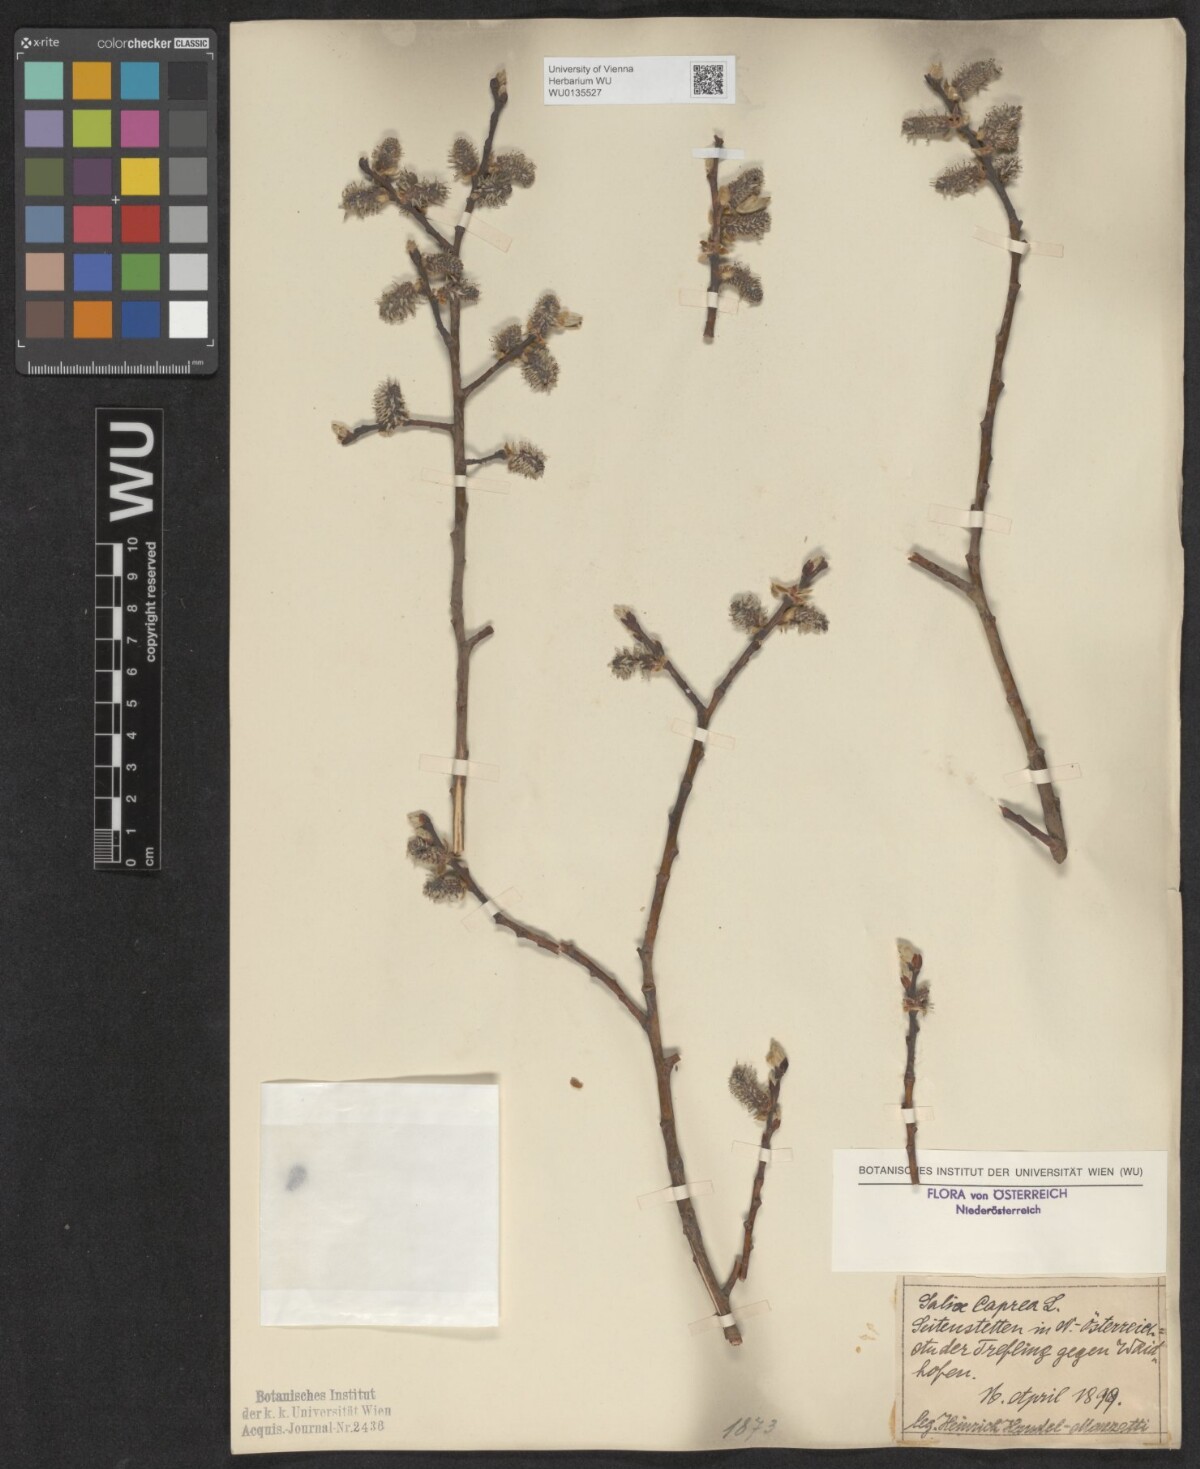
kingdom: Plantae
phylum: Tracheophyta
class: Magnoliopsida
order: Malpighiales
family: Salicaceae
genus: Salix
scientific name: Salix caprea
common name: Goat willow
